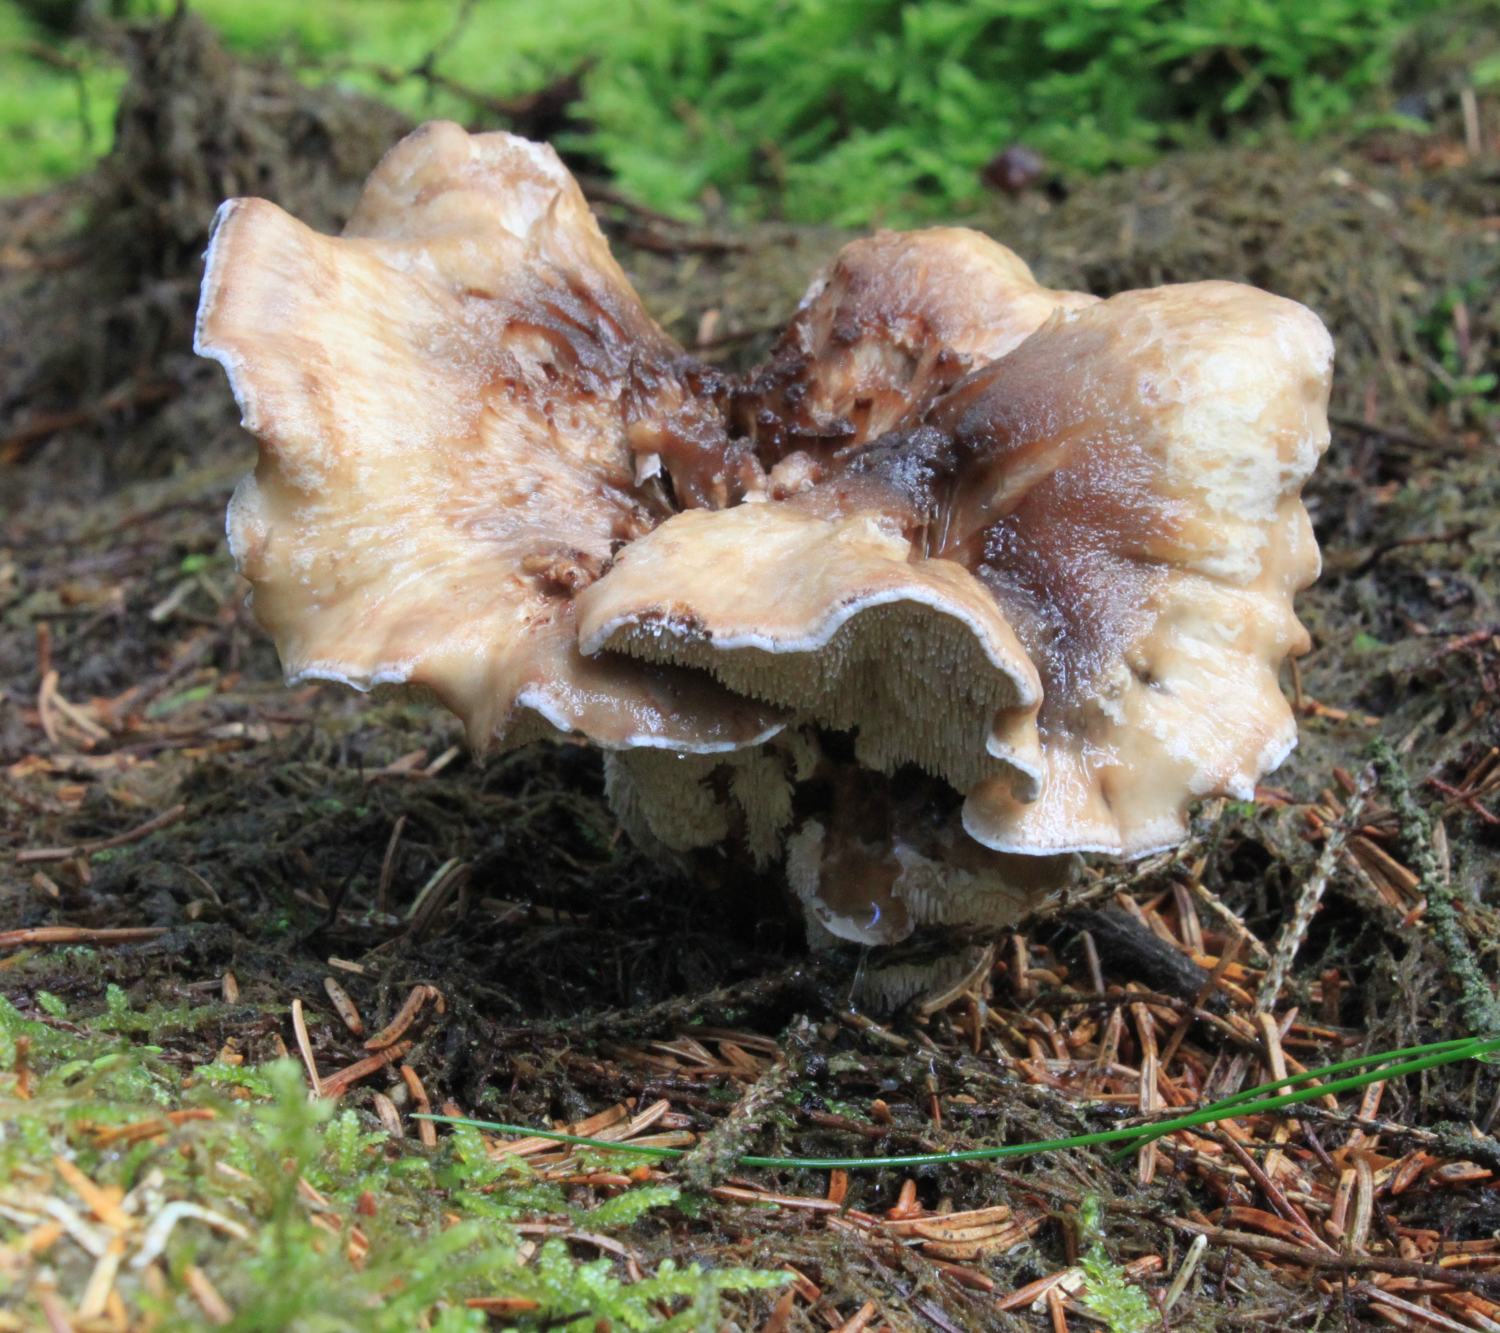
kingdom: Fungi
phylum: Basidiomycota
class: Agaricomycetes
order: Thelephorales
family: Thelephoraceae
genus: Phellodon
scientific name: Phellodon violascens
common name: violetbrun duftpigsvamp
